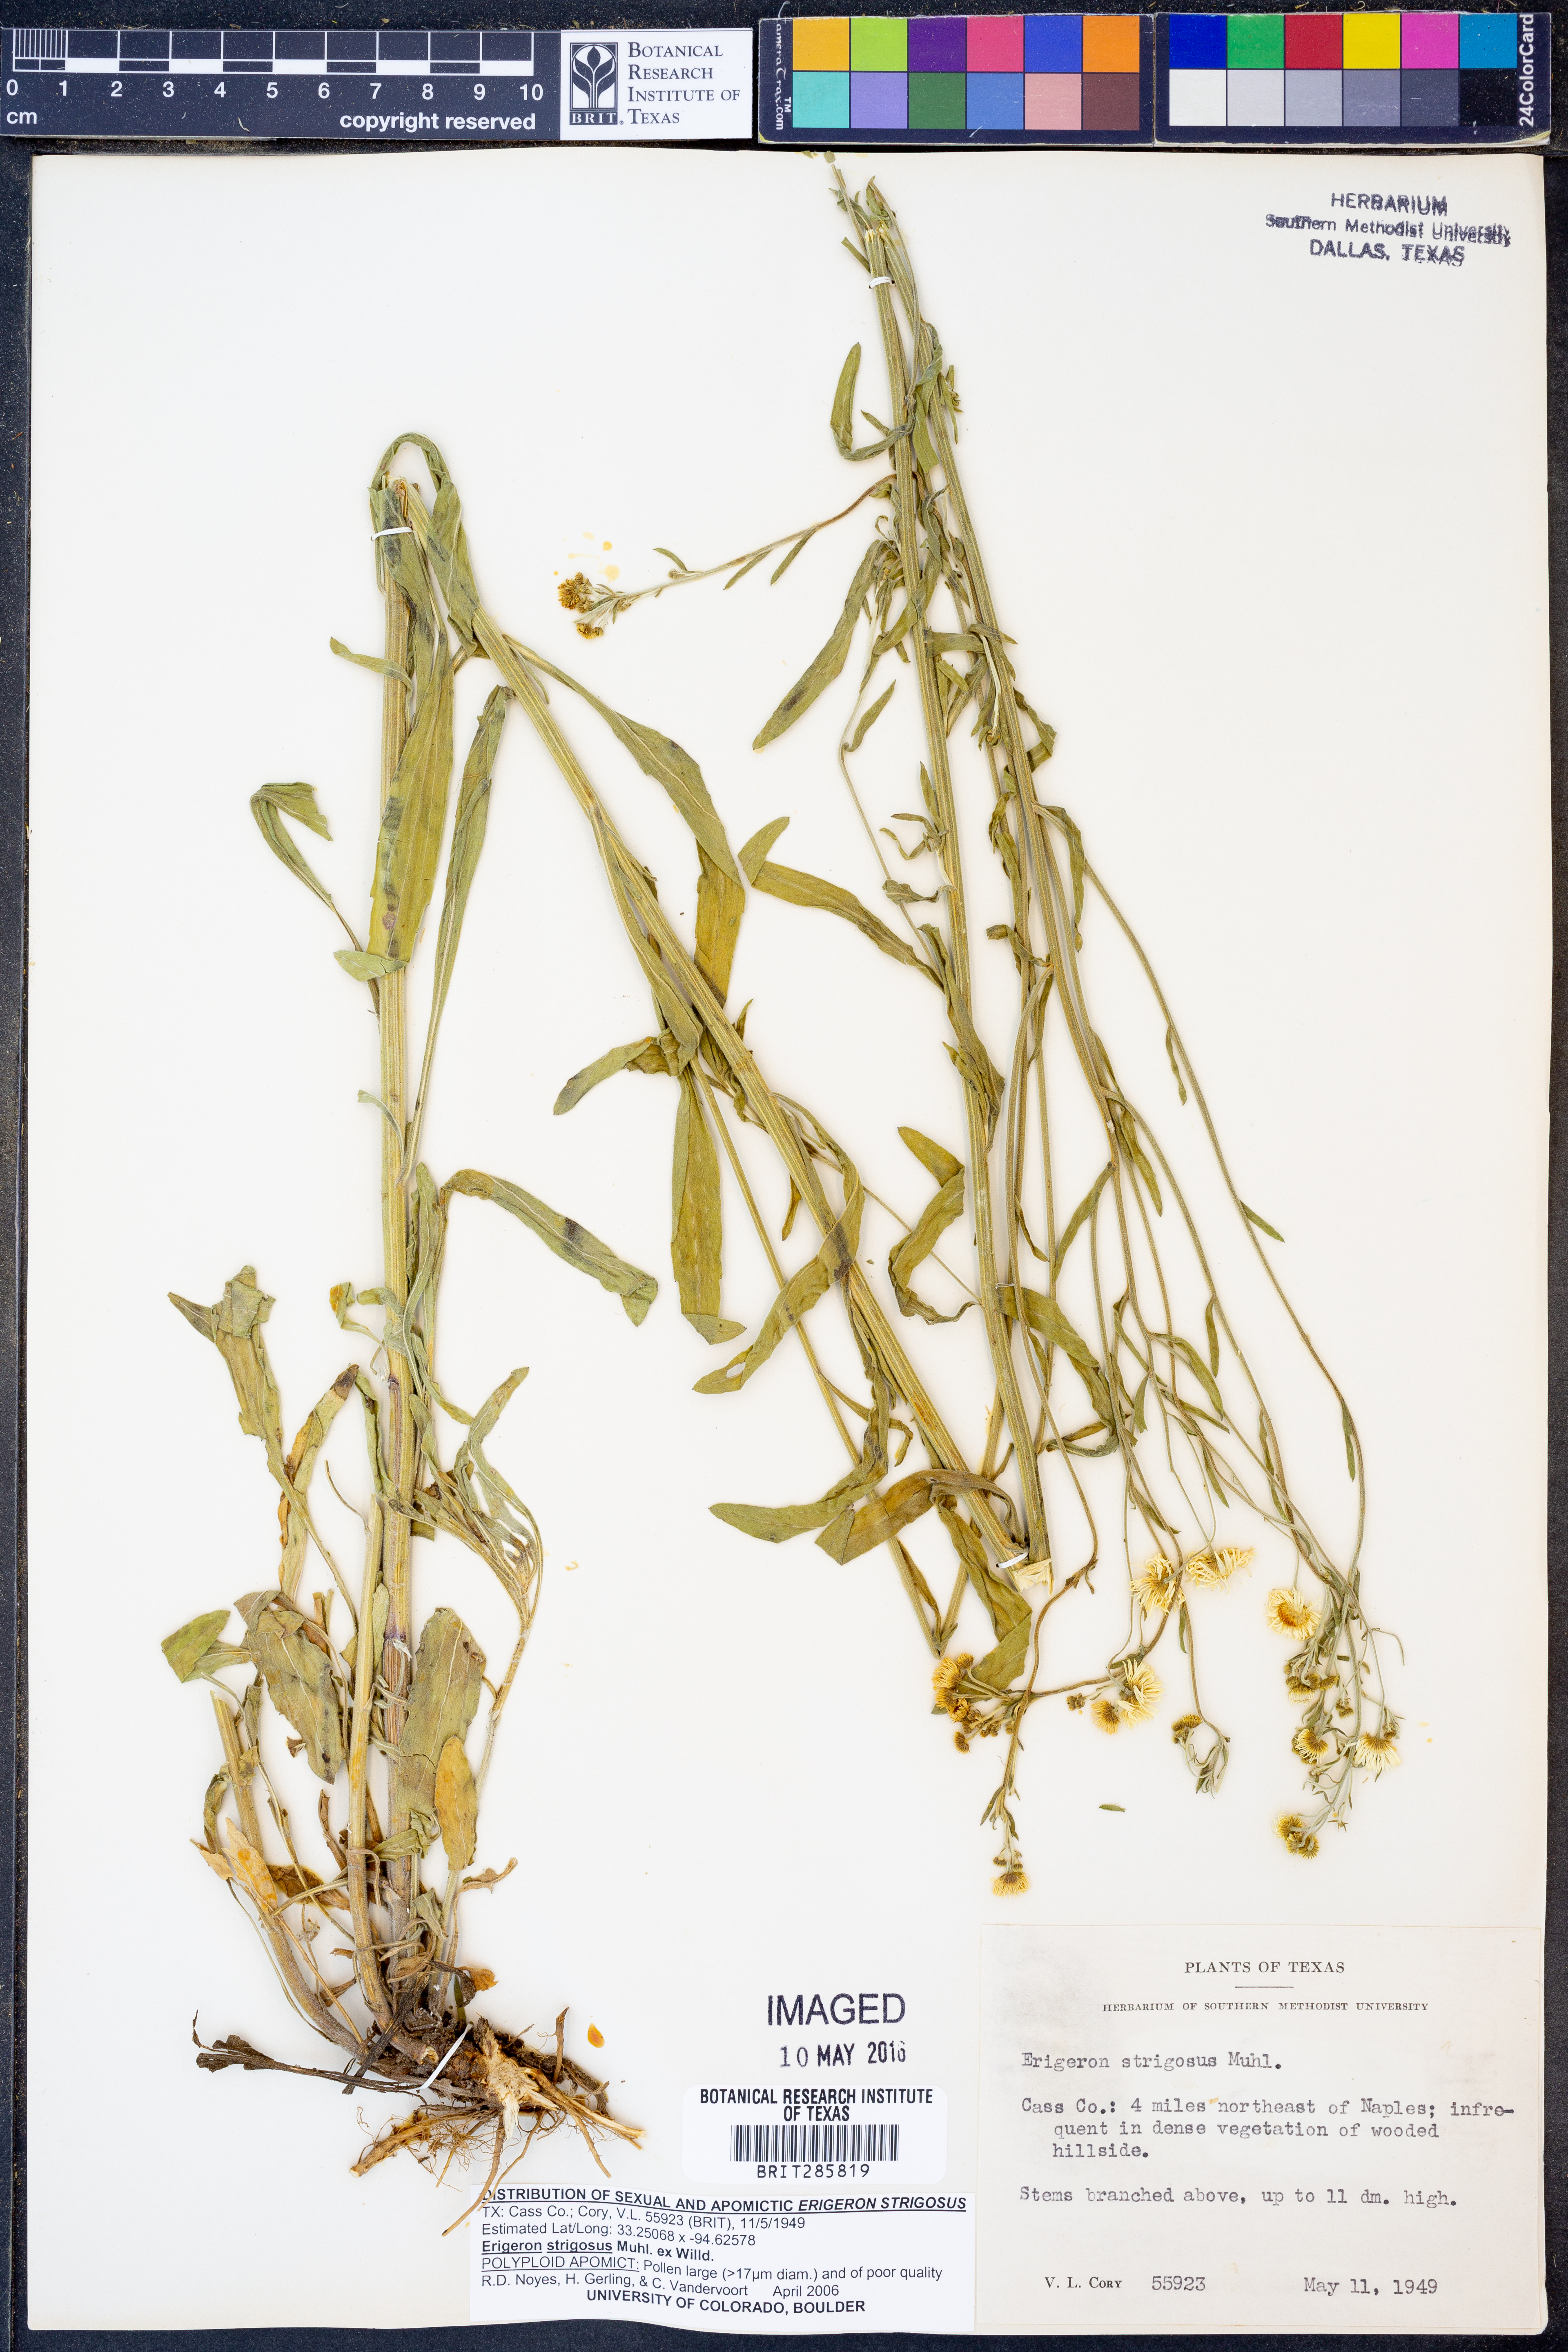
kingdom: Plantae
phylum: Tracheophyta
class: Magnoliopsida
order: Asterales
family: Asteraceae
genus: Erigeron
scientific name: Erigeron strigosus
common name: Common eastern fleabane
